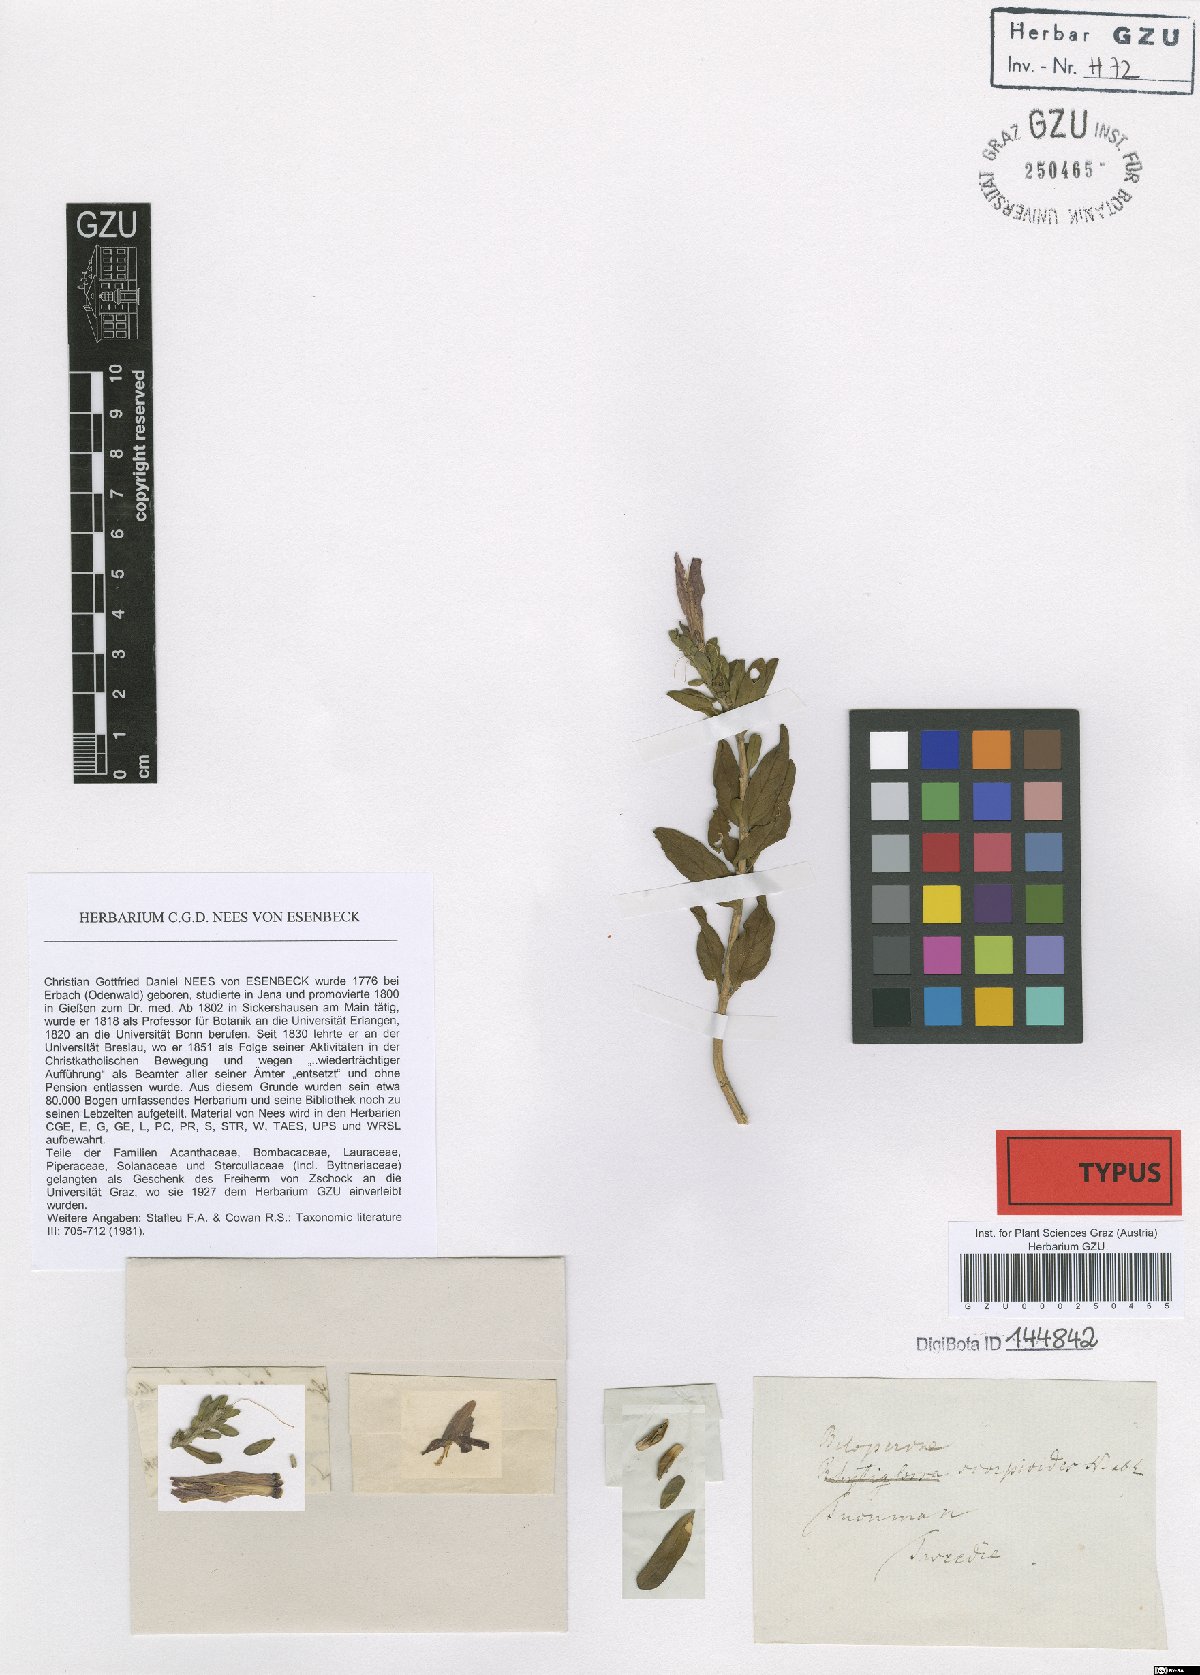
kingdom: Plantae
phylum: Tracheophyta
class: Magnoliopsida
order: Lamiales
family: Acanthaceae
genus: Justicia
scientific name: Justicia xylosteoides
